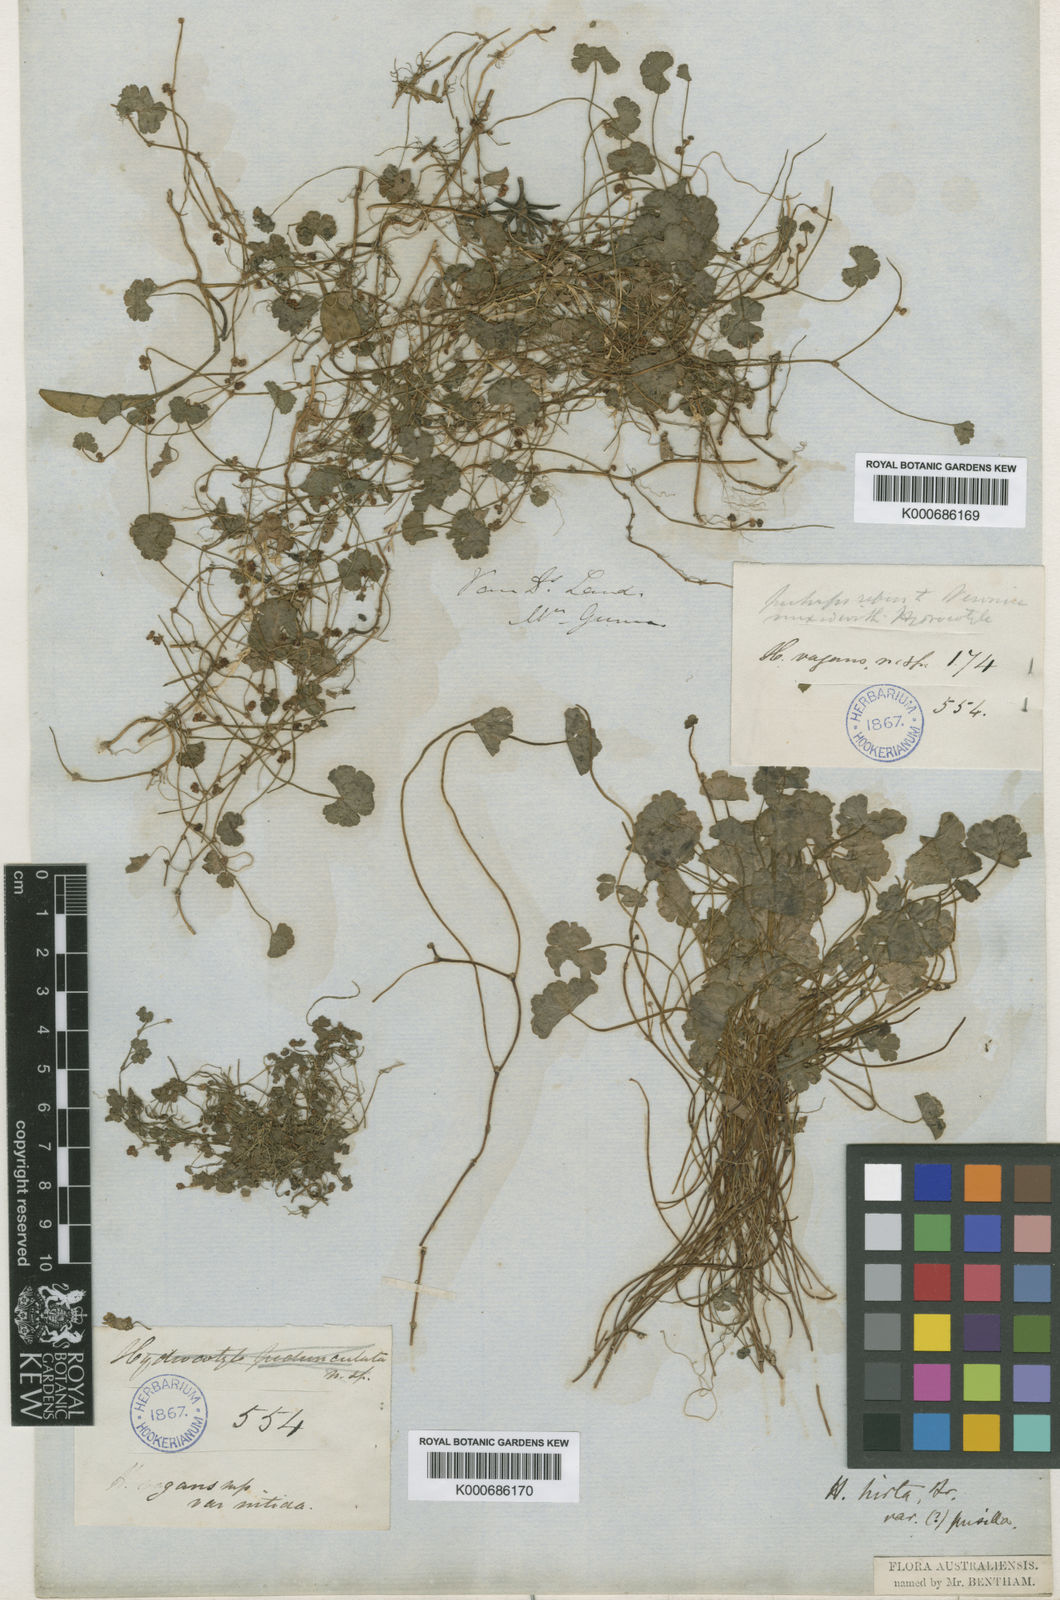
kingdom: Plantae
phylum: Tracheophyta
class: Magnoliopsida
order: Apiales
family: Araliaceae
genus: Hydrocotyle
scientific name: Hydrocotyle hirta
